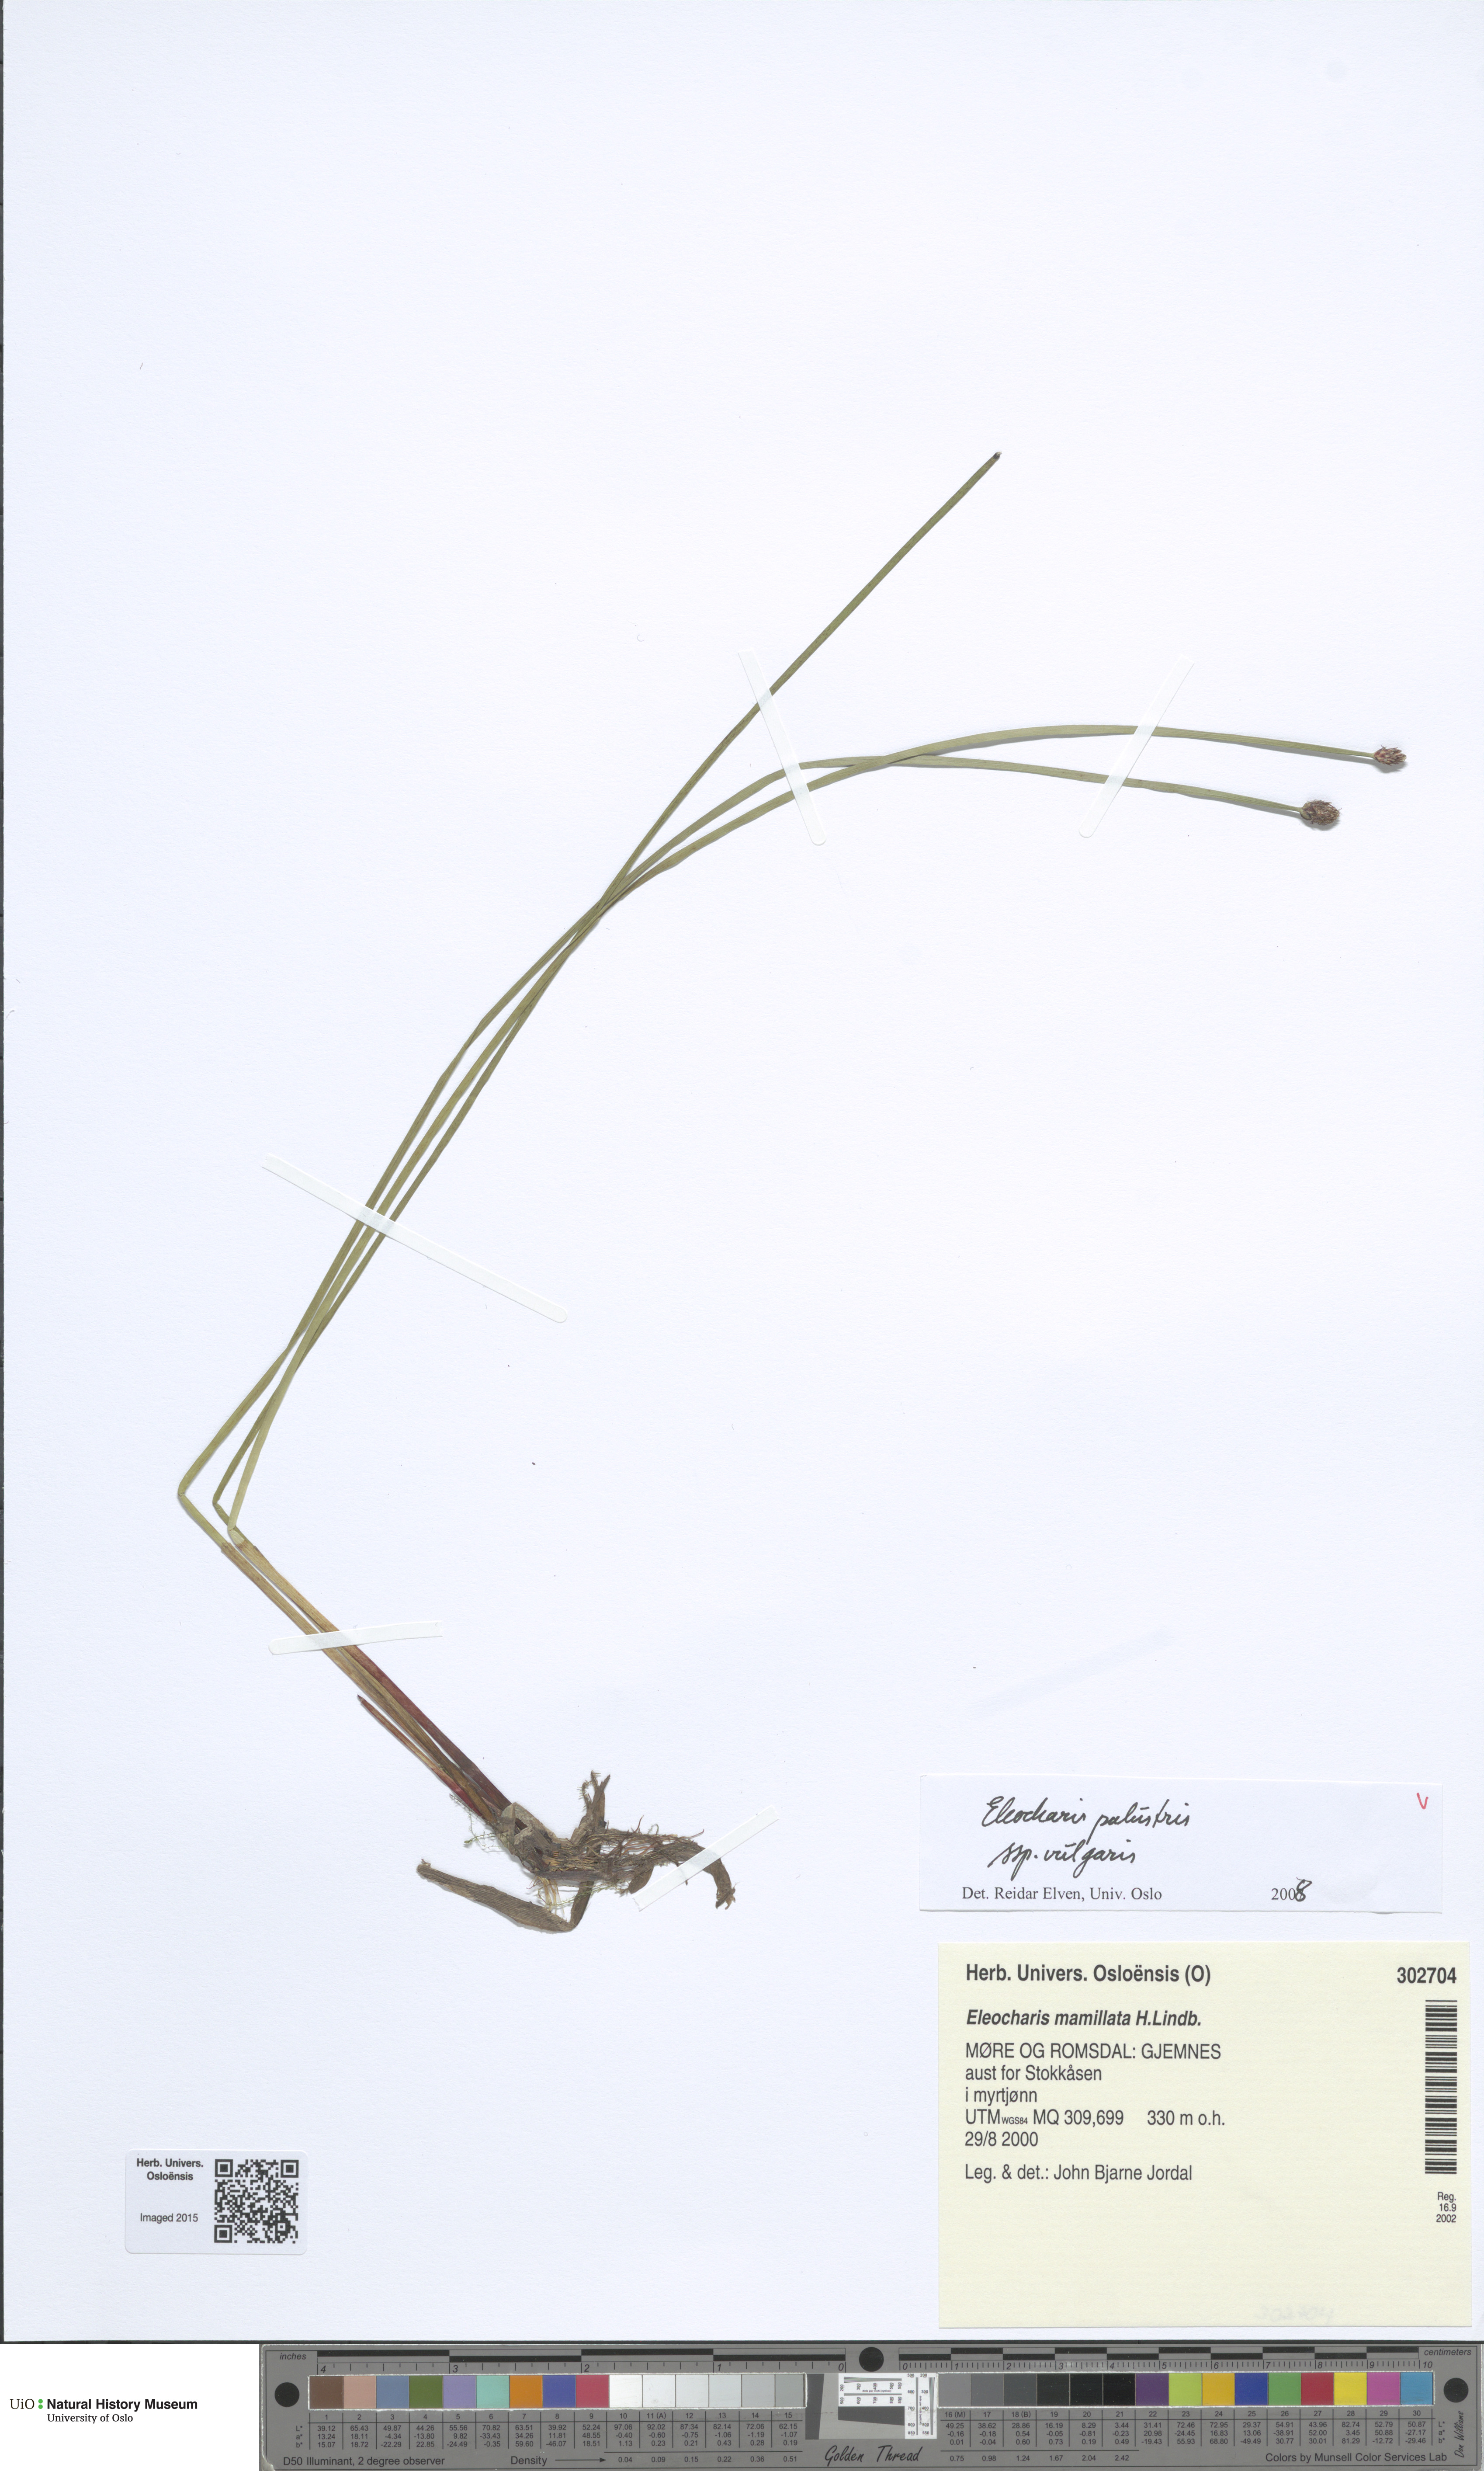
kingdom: Plantae
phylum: Tracheophyta
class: Liliopsida
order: Poales
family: Cyperaceae
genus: Eleocharis
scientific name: Eleocharis palustris
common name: Common spike-rush
